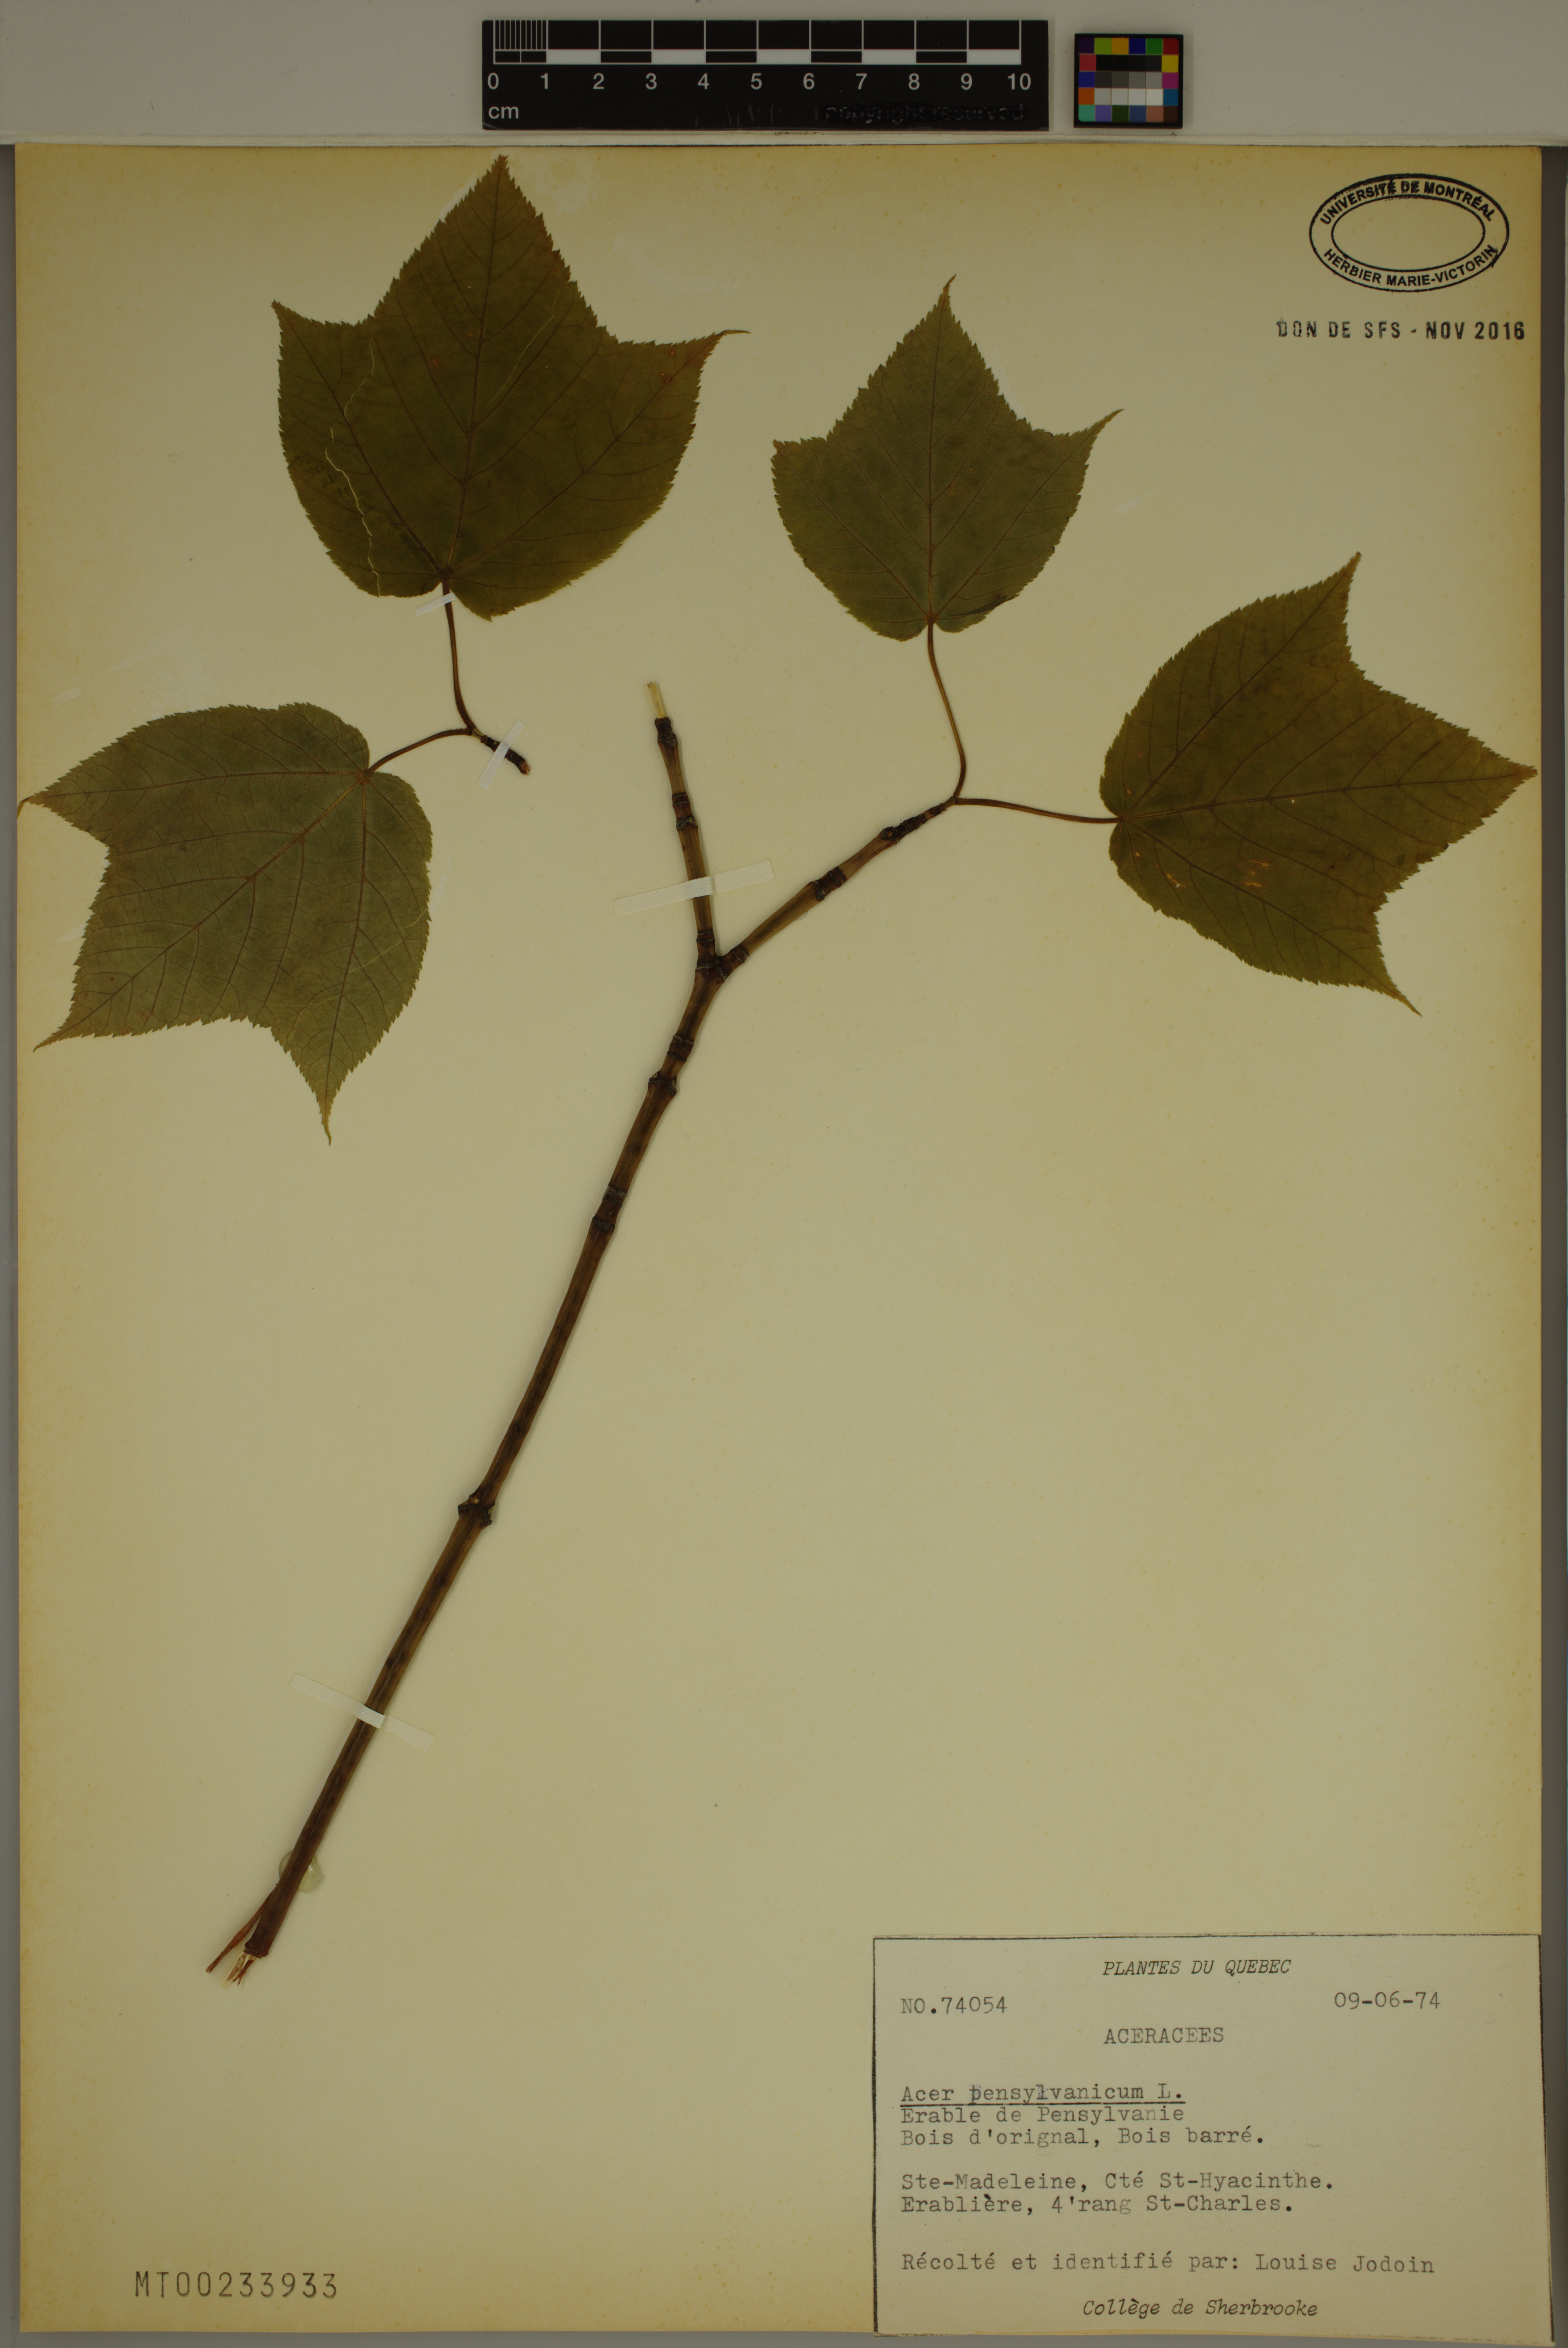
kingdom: Plantae
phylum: Tracheophyta
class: Magnoliopsida
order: Sapindales
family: Sapindaceae
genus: Acer
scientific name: Acer pensylvanicum
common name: Moosewood
